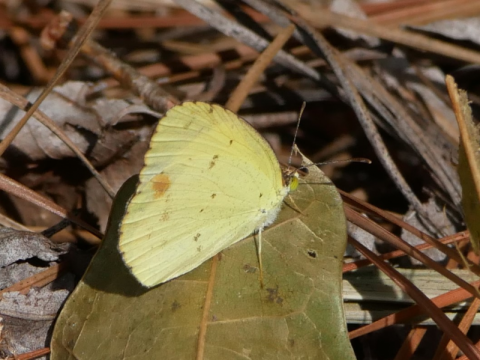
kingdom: Animalia
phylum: Arthropoda
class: Insecta
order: Lepidoptera
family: Pieridae
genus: Pyrisitia
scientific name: Pyrisitia lisa
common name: Little Yellow
